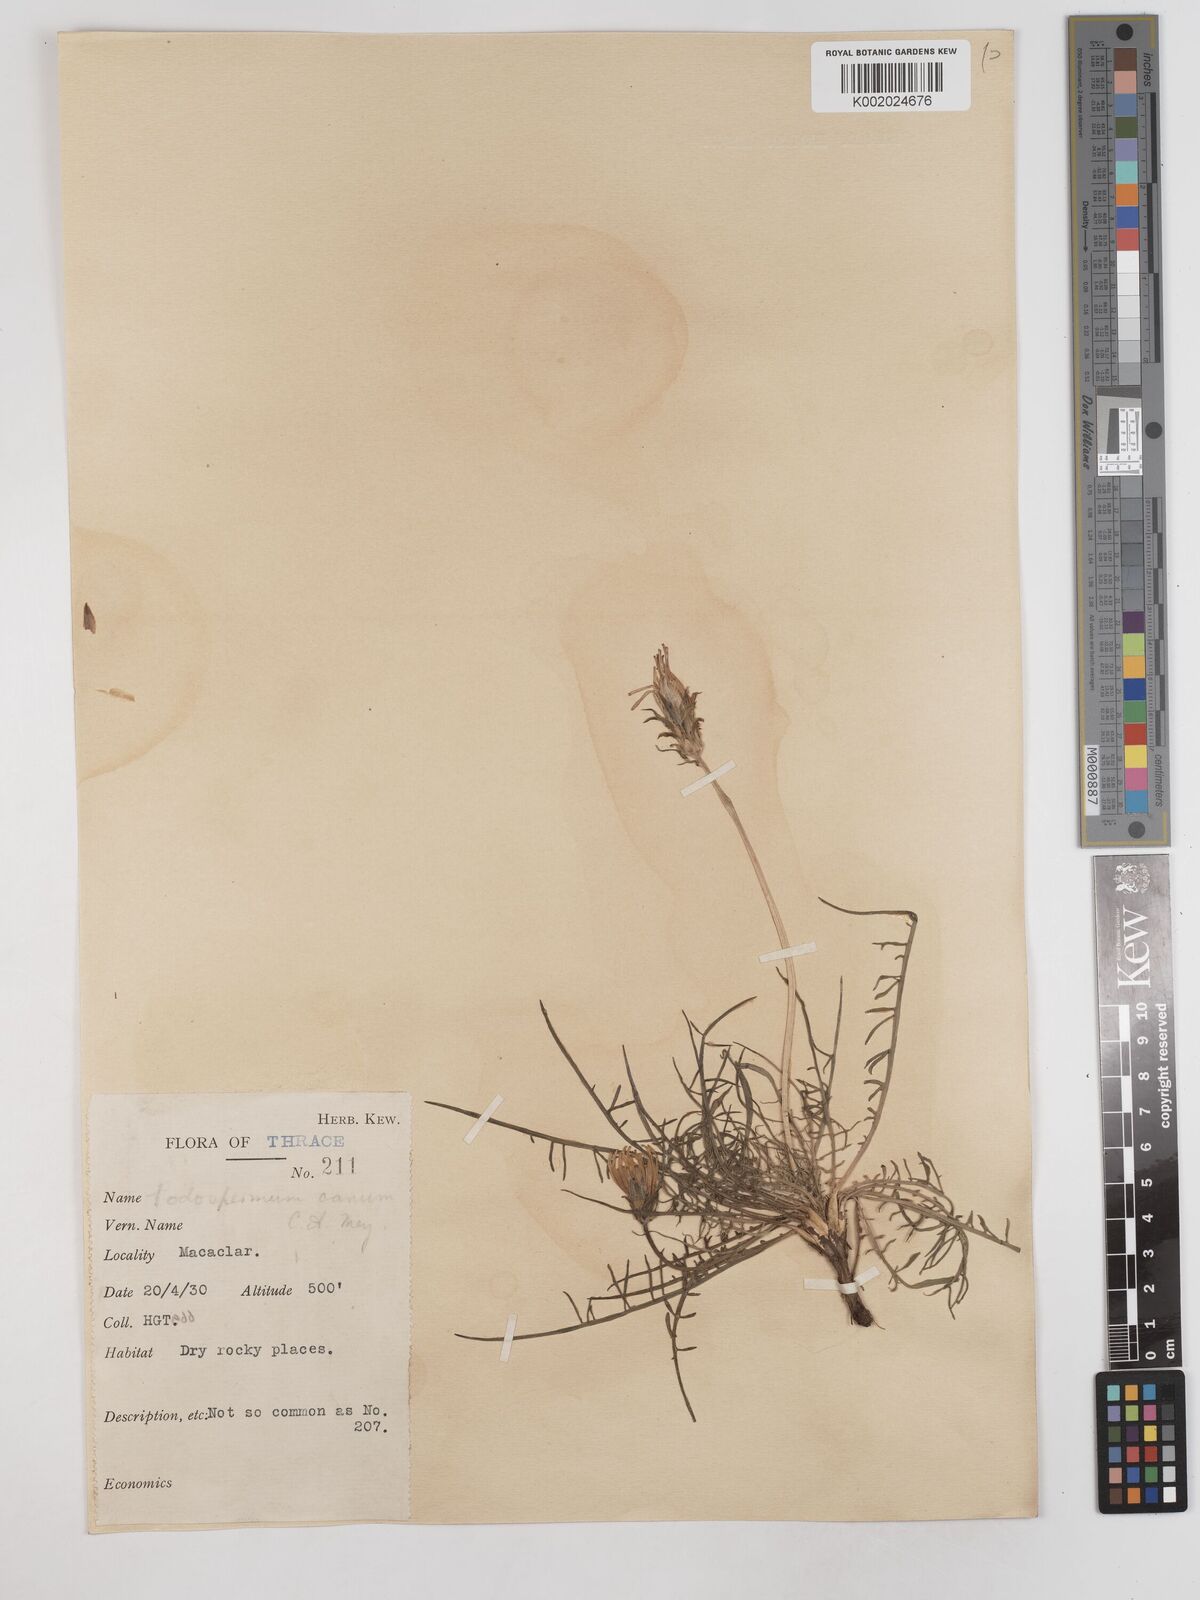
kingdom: Plantae
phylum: Tracheophyta
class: Magnoliopsida
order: Asterales
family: Asteraceae
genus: Scorzonera
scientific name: Scorzonera cana
